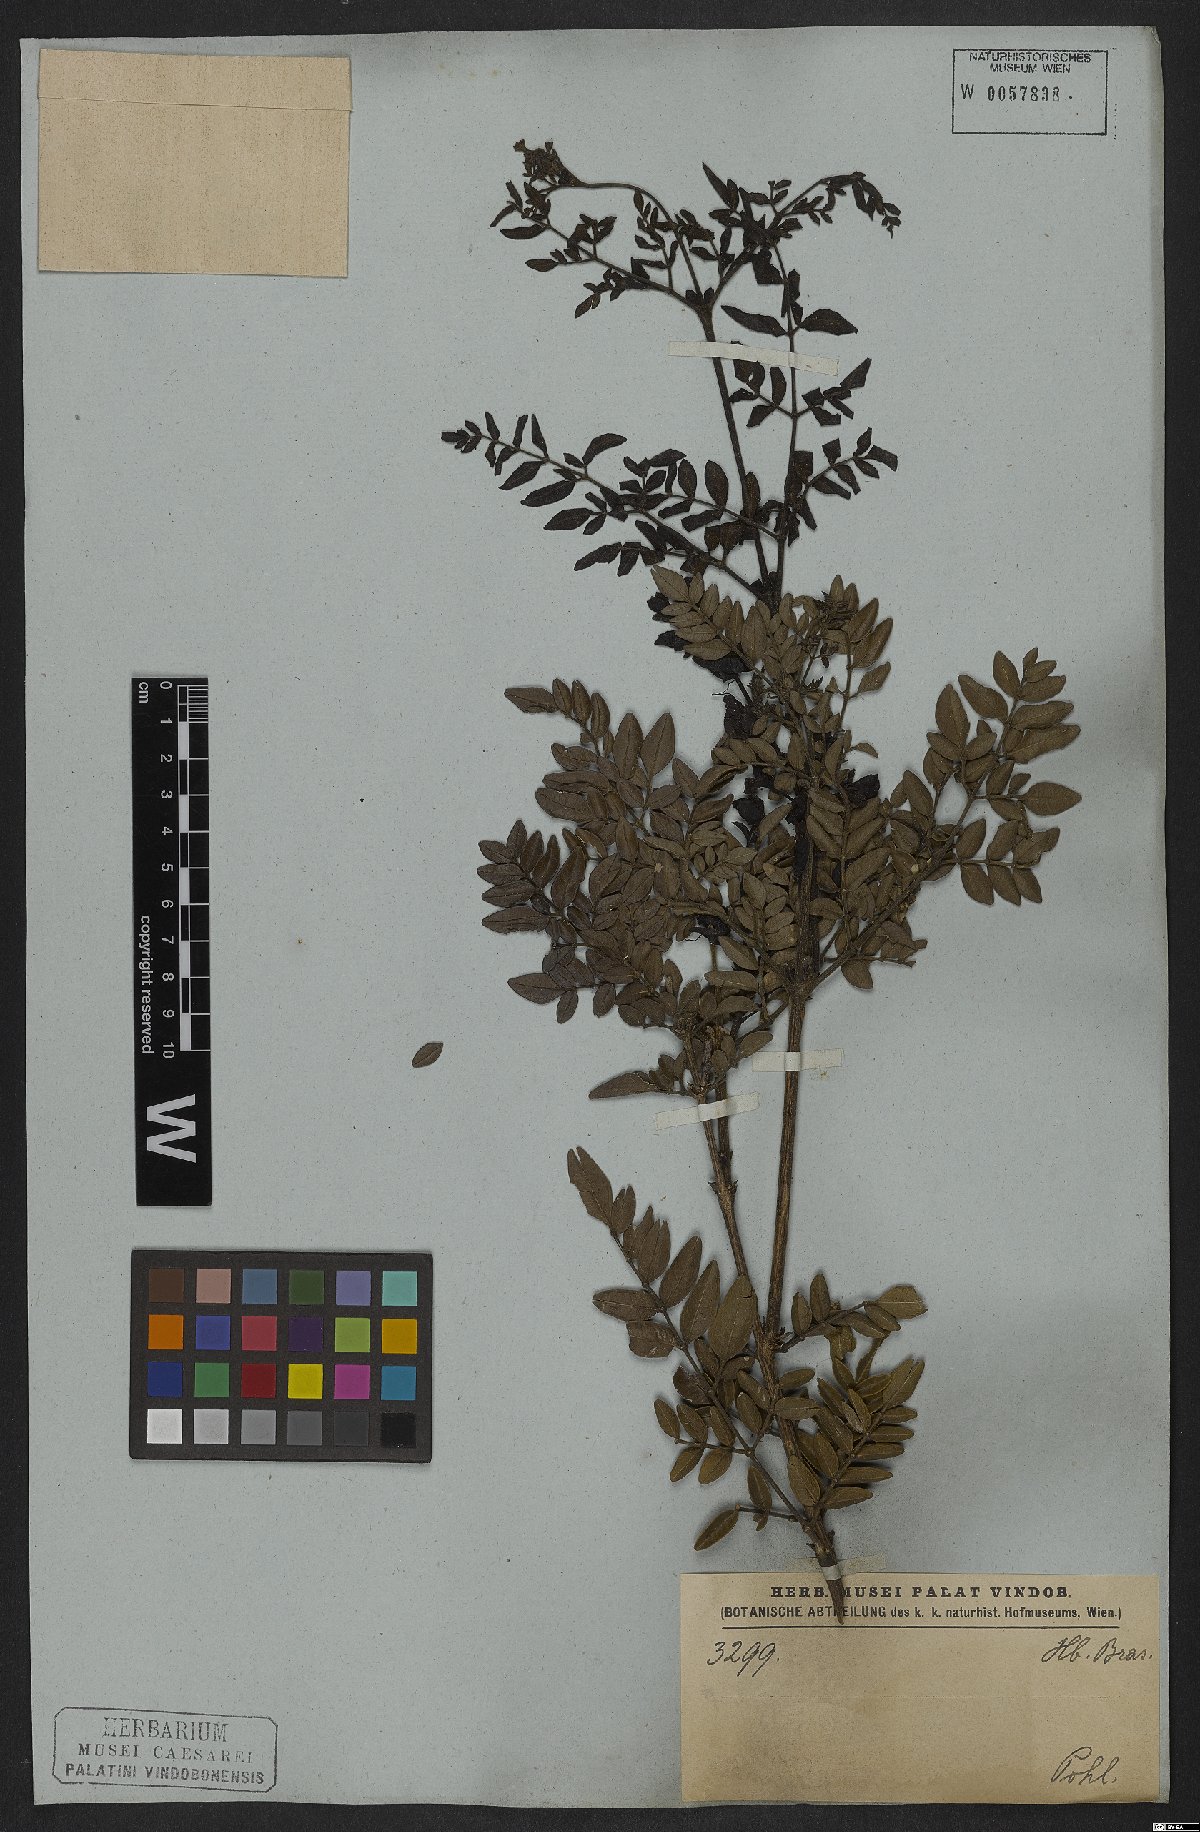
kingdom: Plantae
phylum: Tracheophyta
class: Magnoliopsida
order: Lamiales
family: Bignoniaceae
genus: Adenocalymma
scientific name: Adenocalymma pubescens
